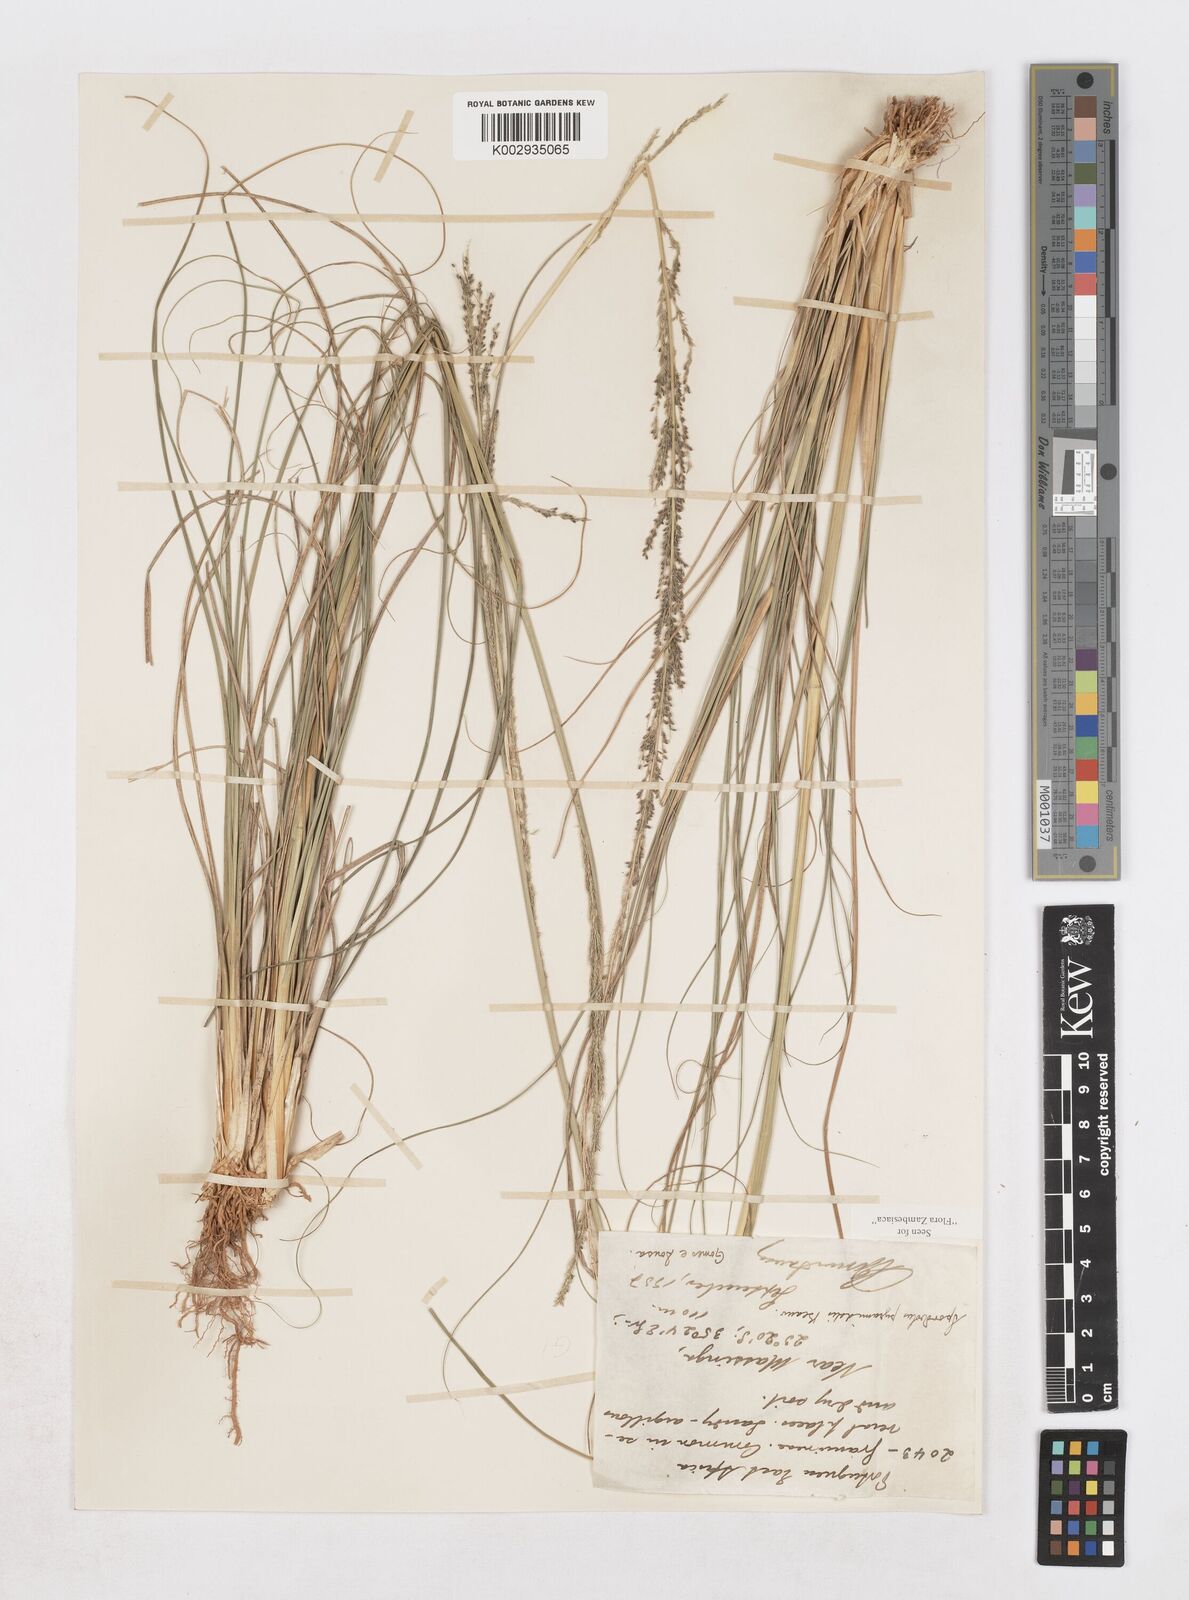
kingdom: Plantae
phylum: Tracheophyta
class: Liliopsida
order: Poales
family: Poaceae
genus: Sporobolus
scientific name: Sporobolus pyramidalis
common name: West indian dropseed
